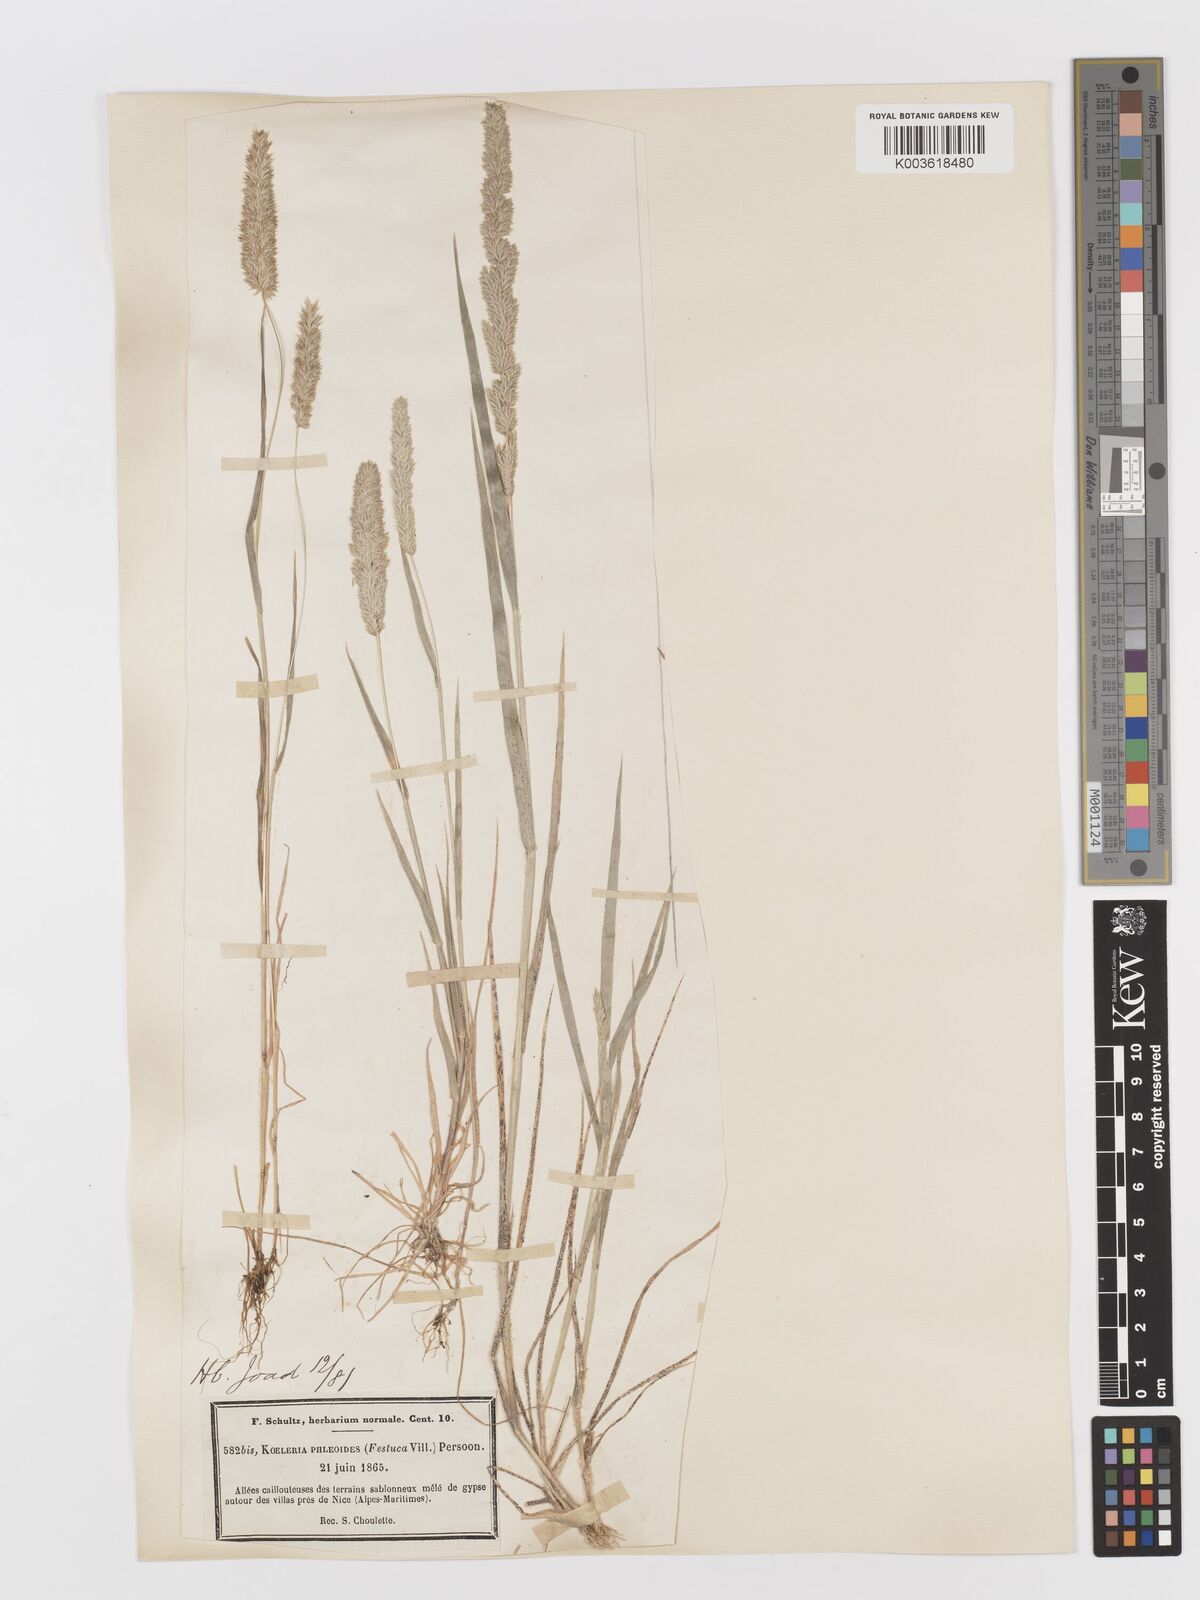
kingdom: Plantae
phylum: Tracheophyta
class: Liliopsida
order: Poales
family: Poaceae
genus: Rostraria
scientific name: Rostraria cristata
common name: Mediterranean hair-grass
